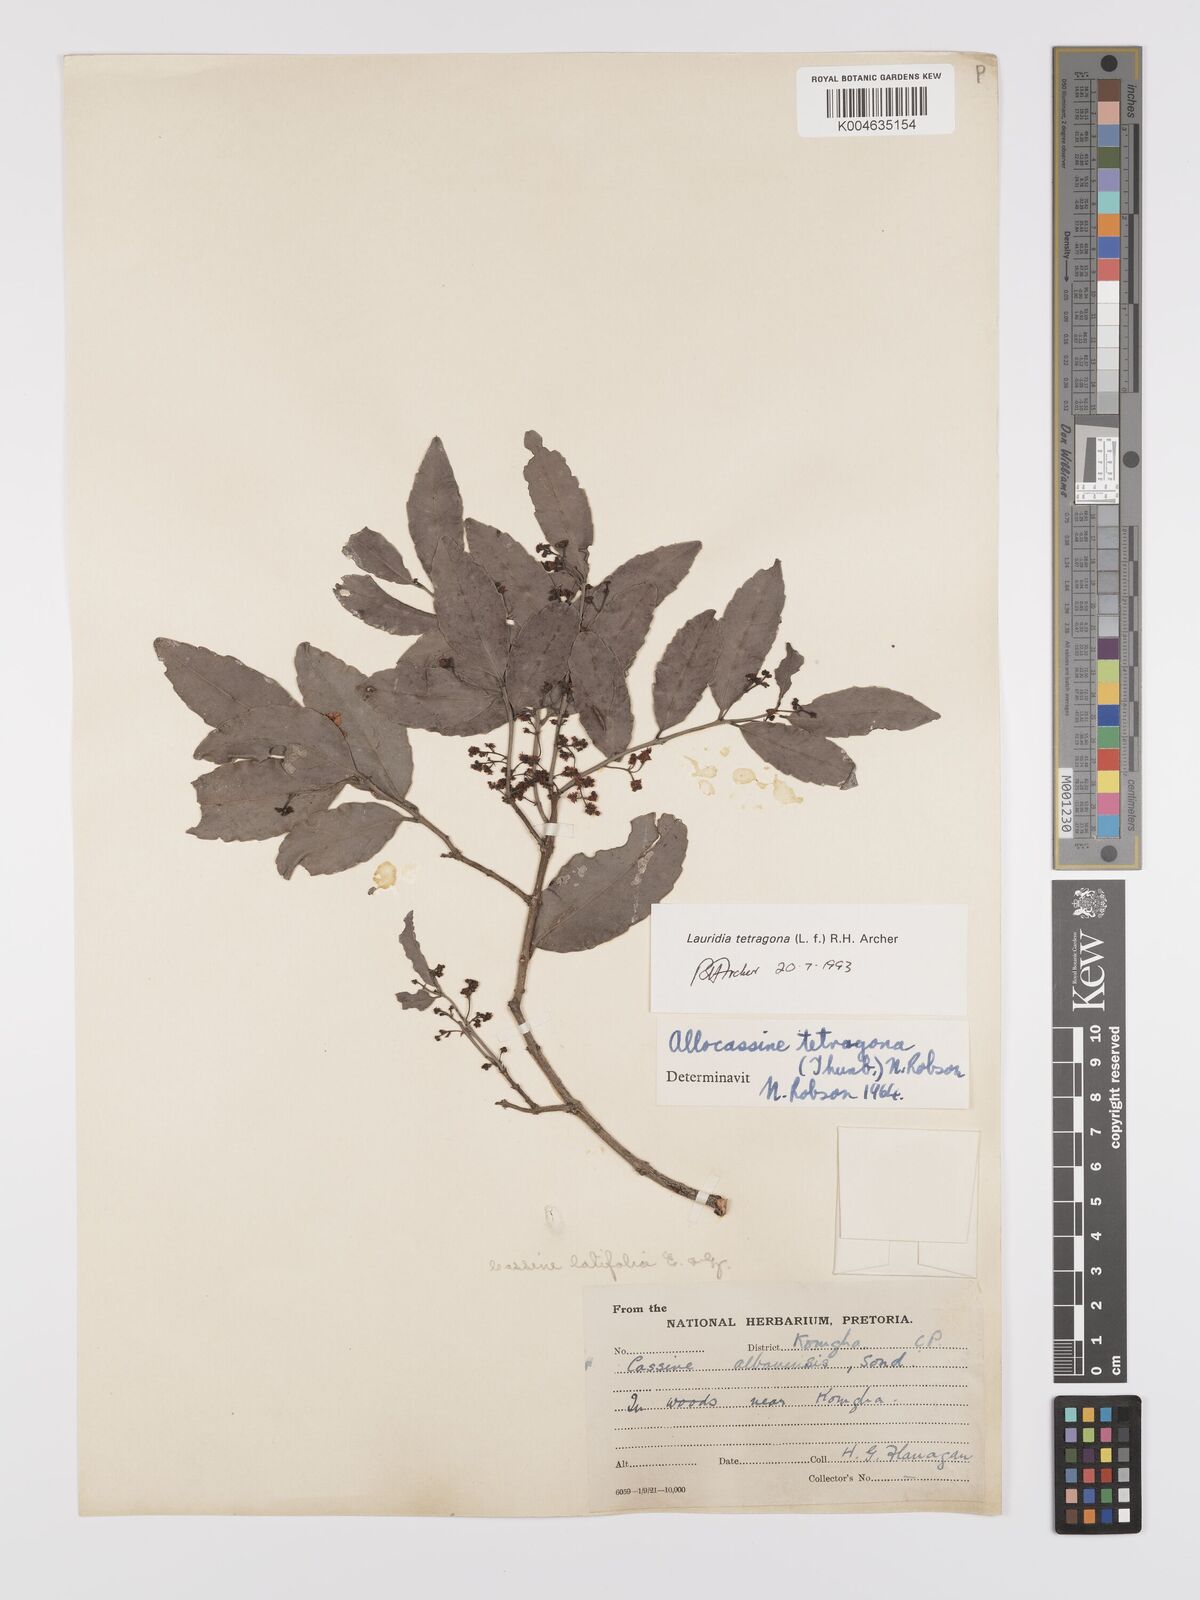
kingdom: Plantae
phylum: Tracheophyta
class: Magnoliopsida
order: Celastrales
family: Celastraceae
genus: Lauridia
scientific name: Lauridia tetragona
